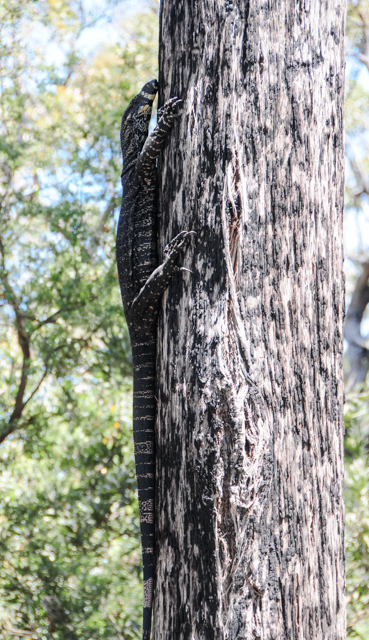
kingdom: Animalia
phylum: Chordata
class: Squamata
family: Varanidae
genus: Varanus
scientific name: Varanus varius
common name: Lace monitor
